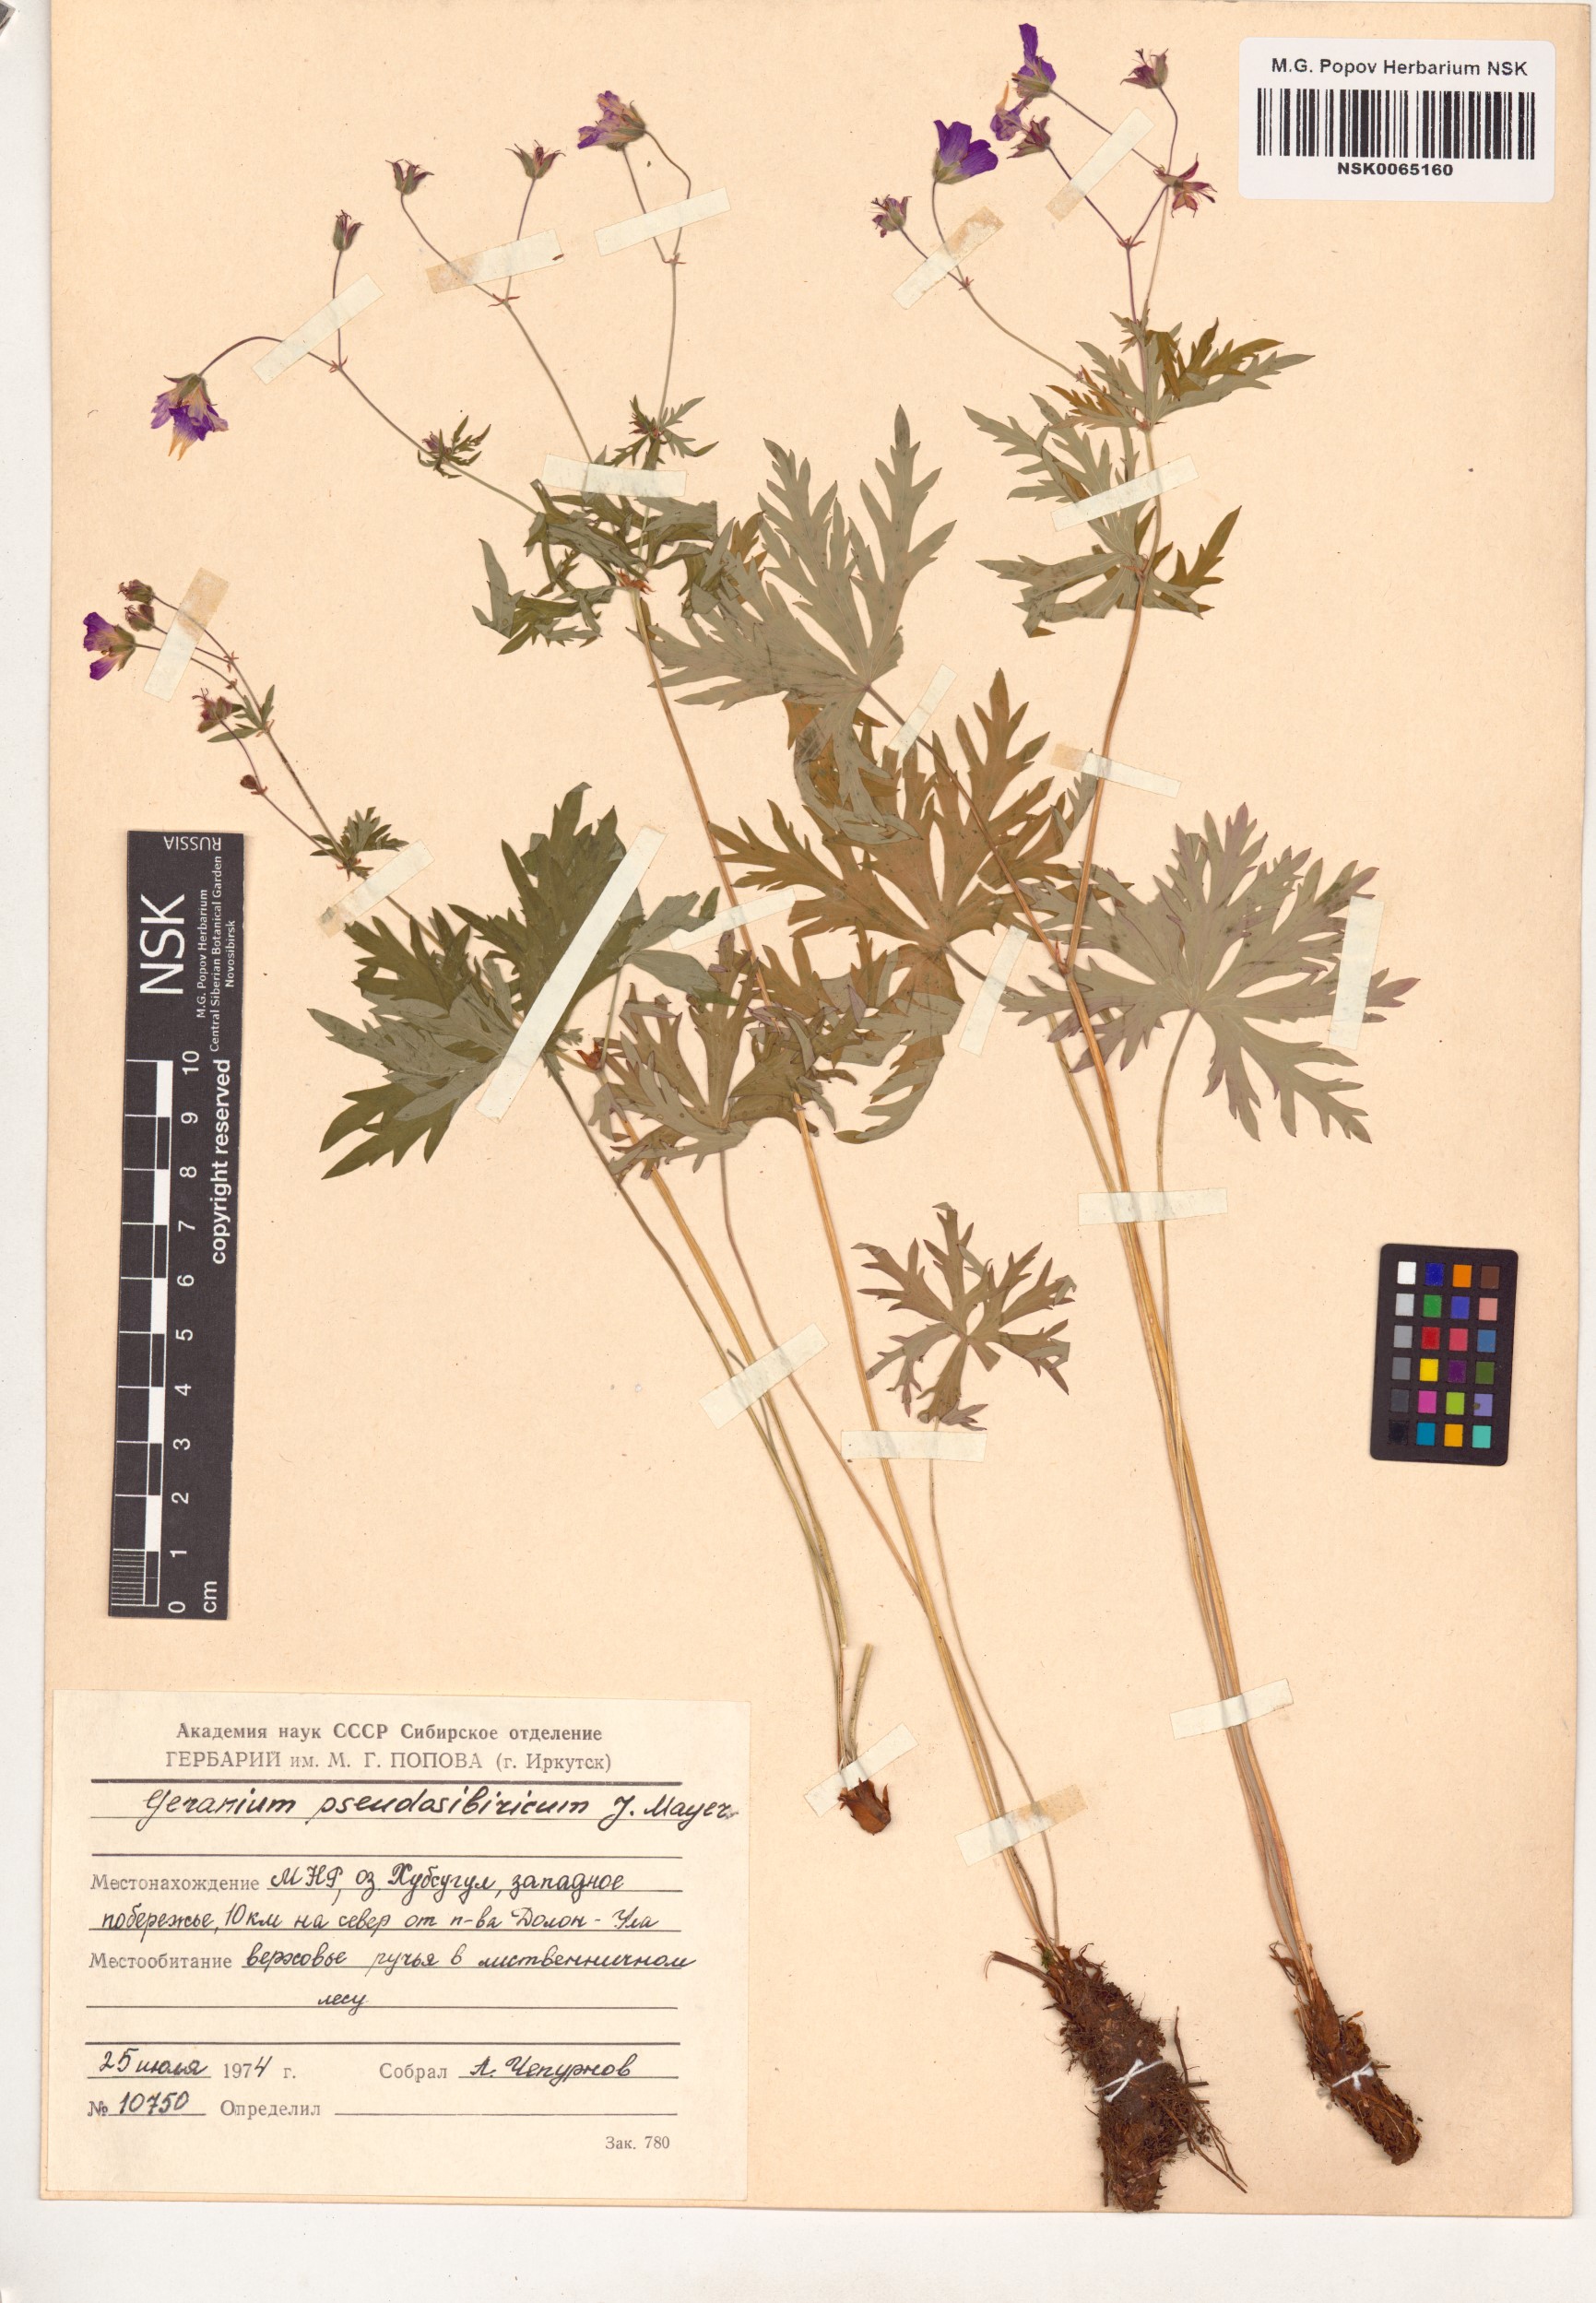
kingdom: Plantae
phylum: Tracheophyta
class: Magnoliopsida
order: Geraniales
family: Geraniaceae
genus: Geranium
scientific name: Geranium pseudosibiricum
